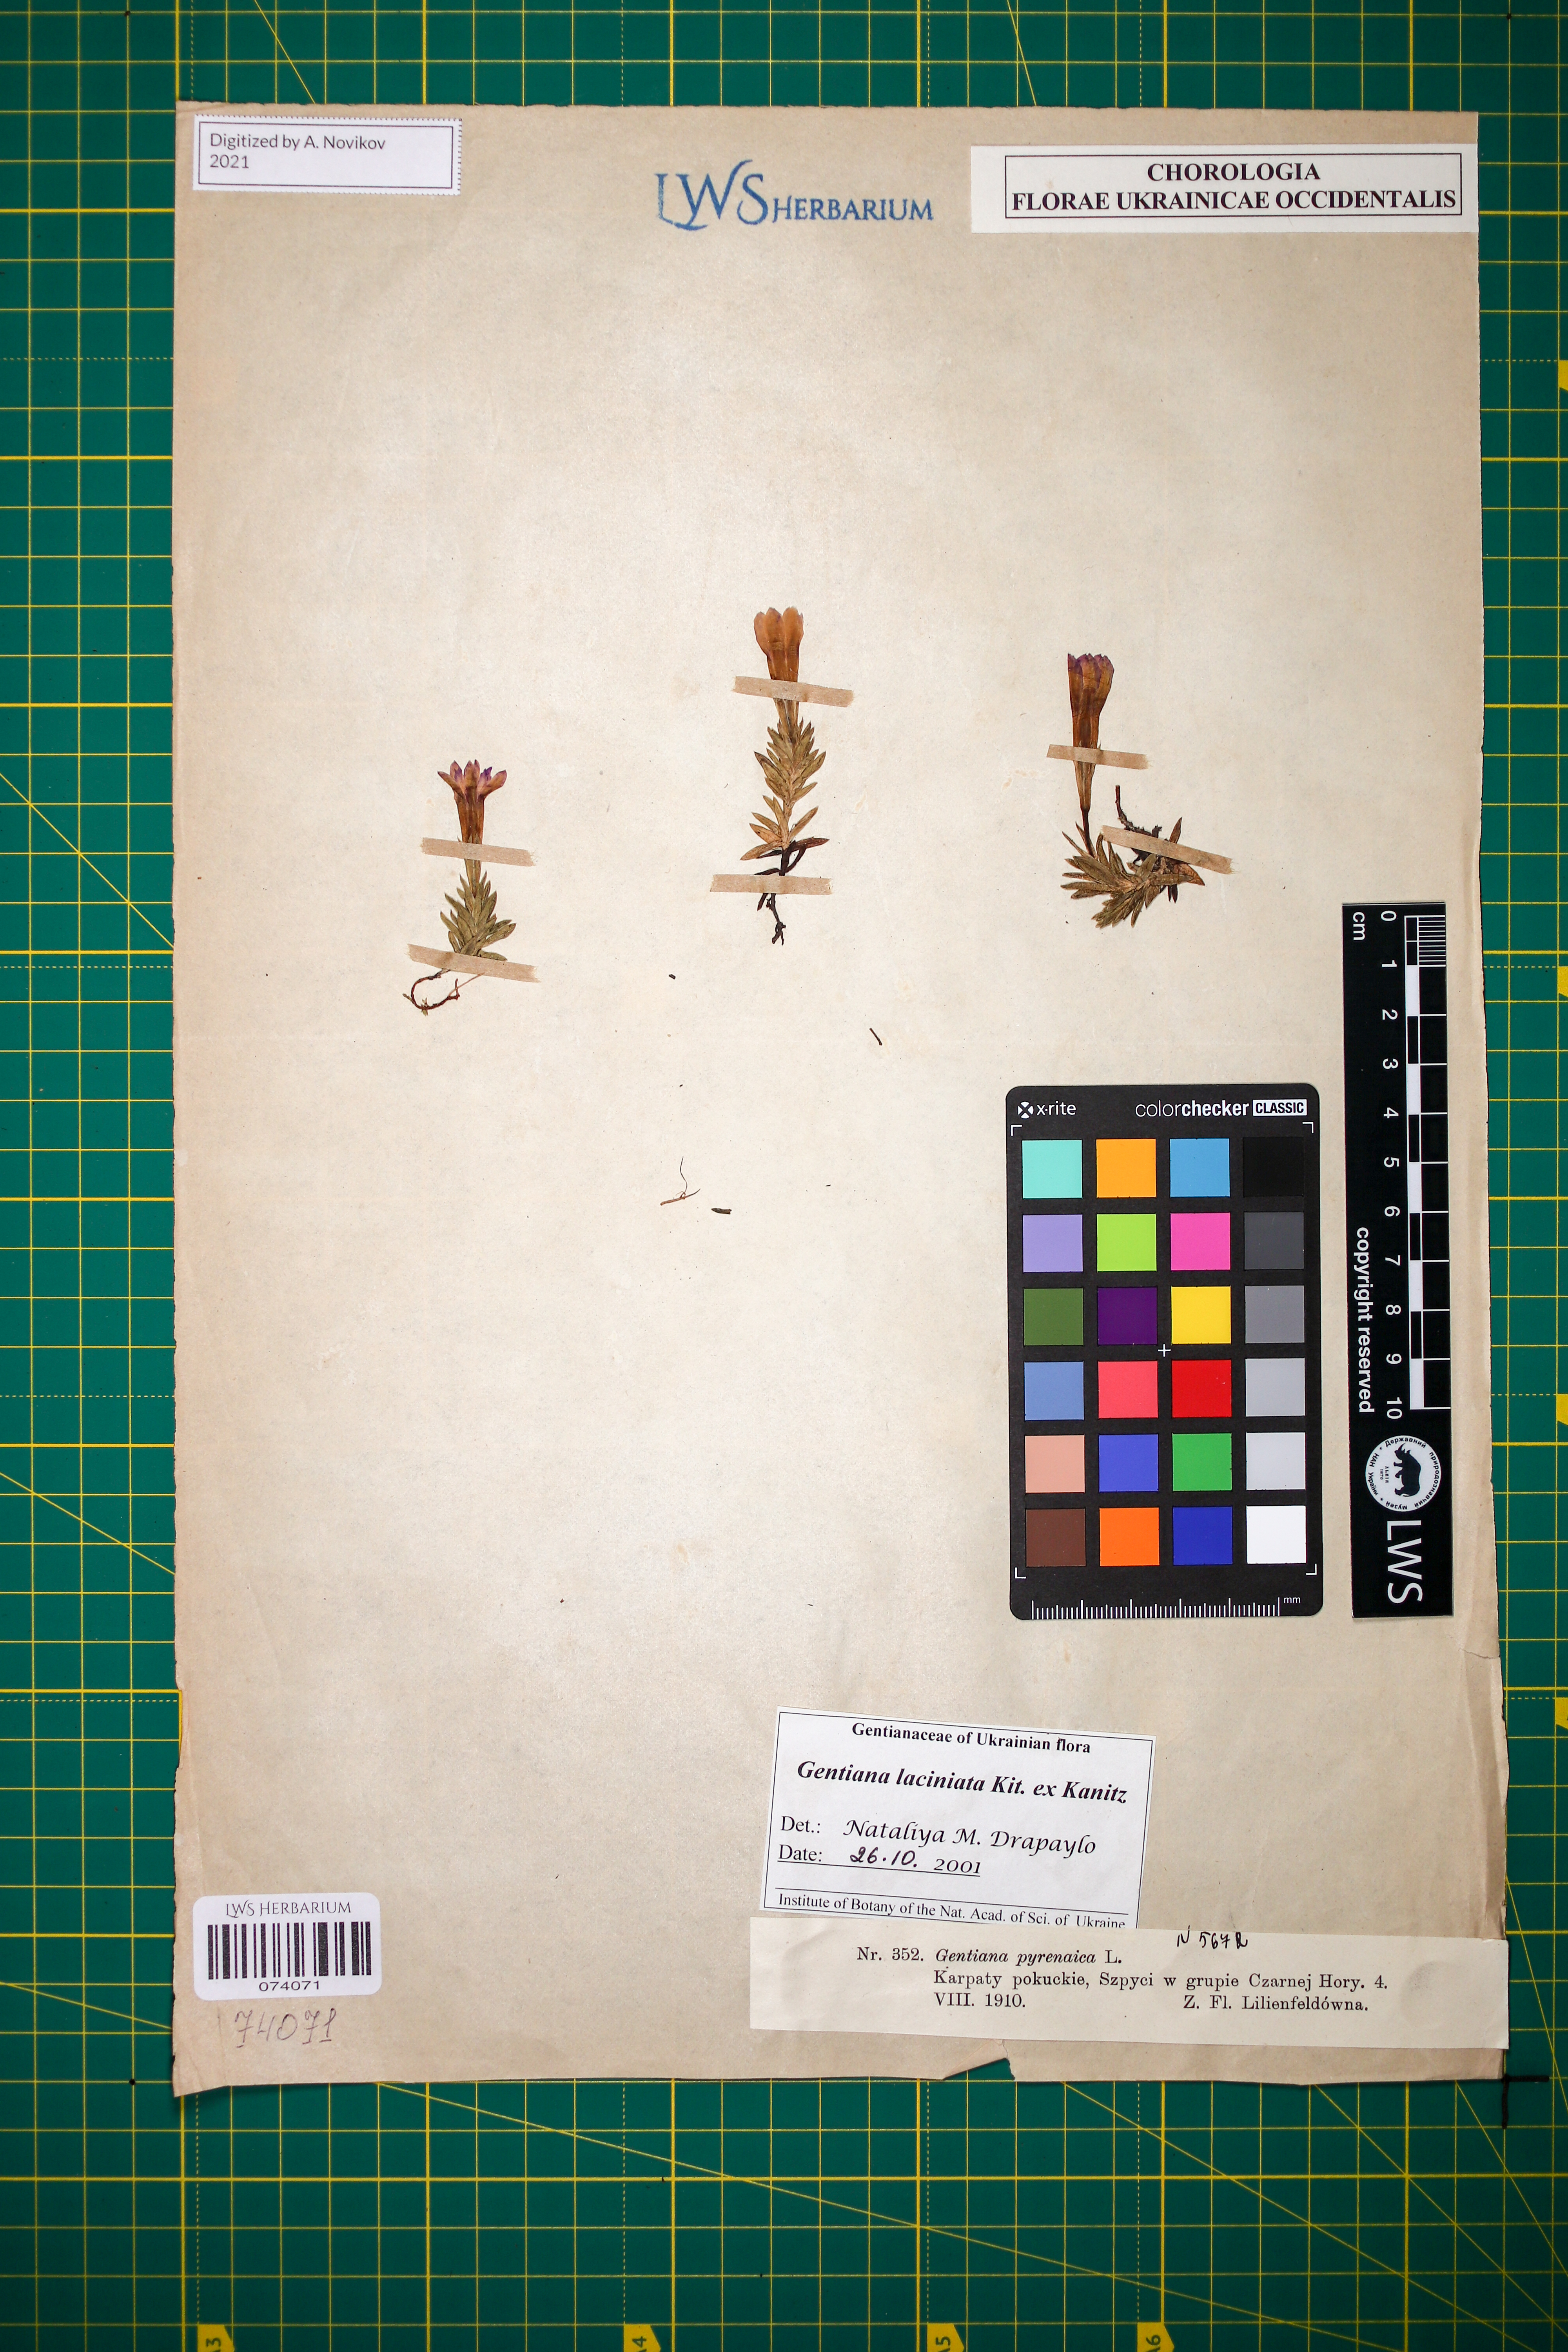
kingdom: Plantae
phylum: Tracheophyta
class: Magnoliopsida
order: Gentianales
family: Gentianaceae
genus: Gentiana
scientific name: Gentiana laciniata
